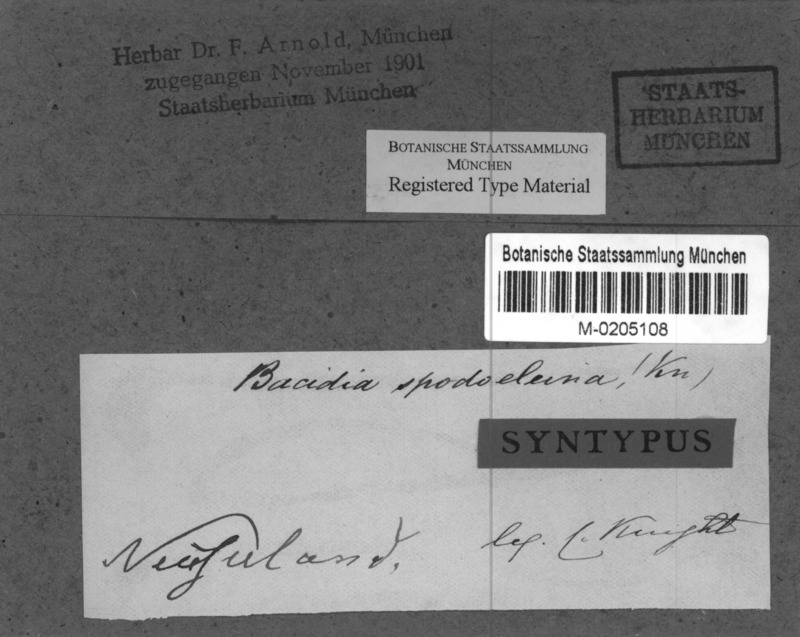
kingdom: Fungi
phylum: Ascomycota
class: Lecanoromycetes
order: Lecanorales
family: Ramalinaceae
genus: Bacidia
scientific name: Bacidia wellingtonii
